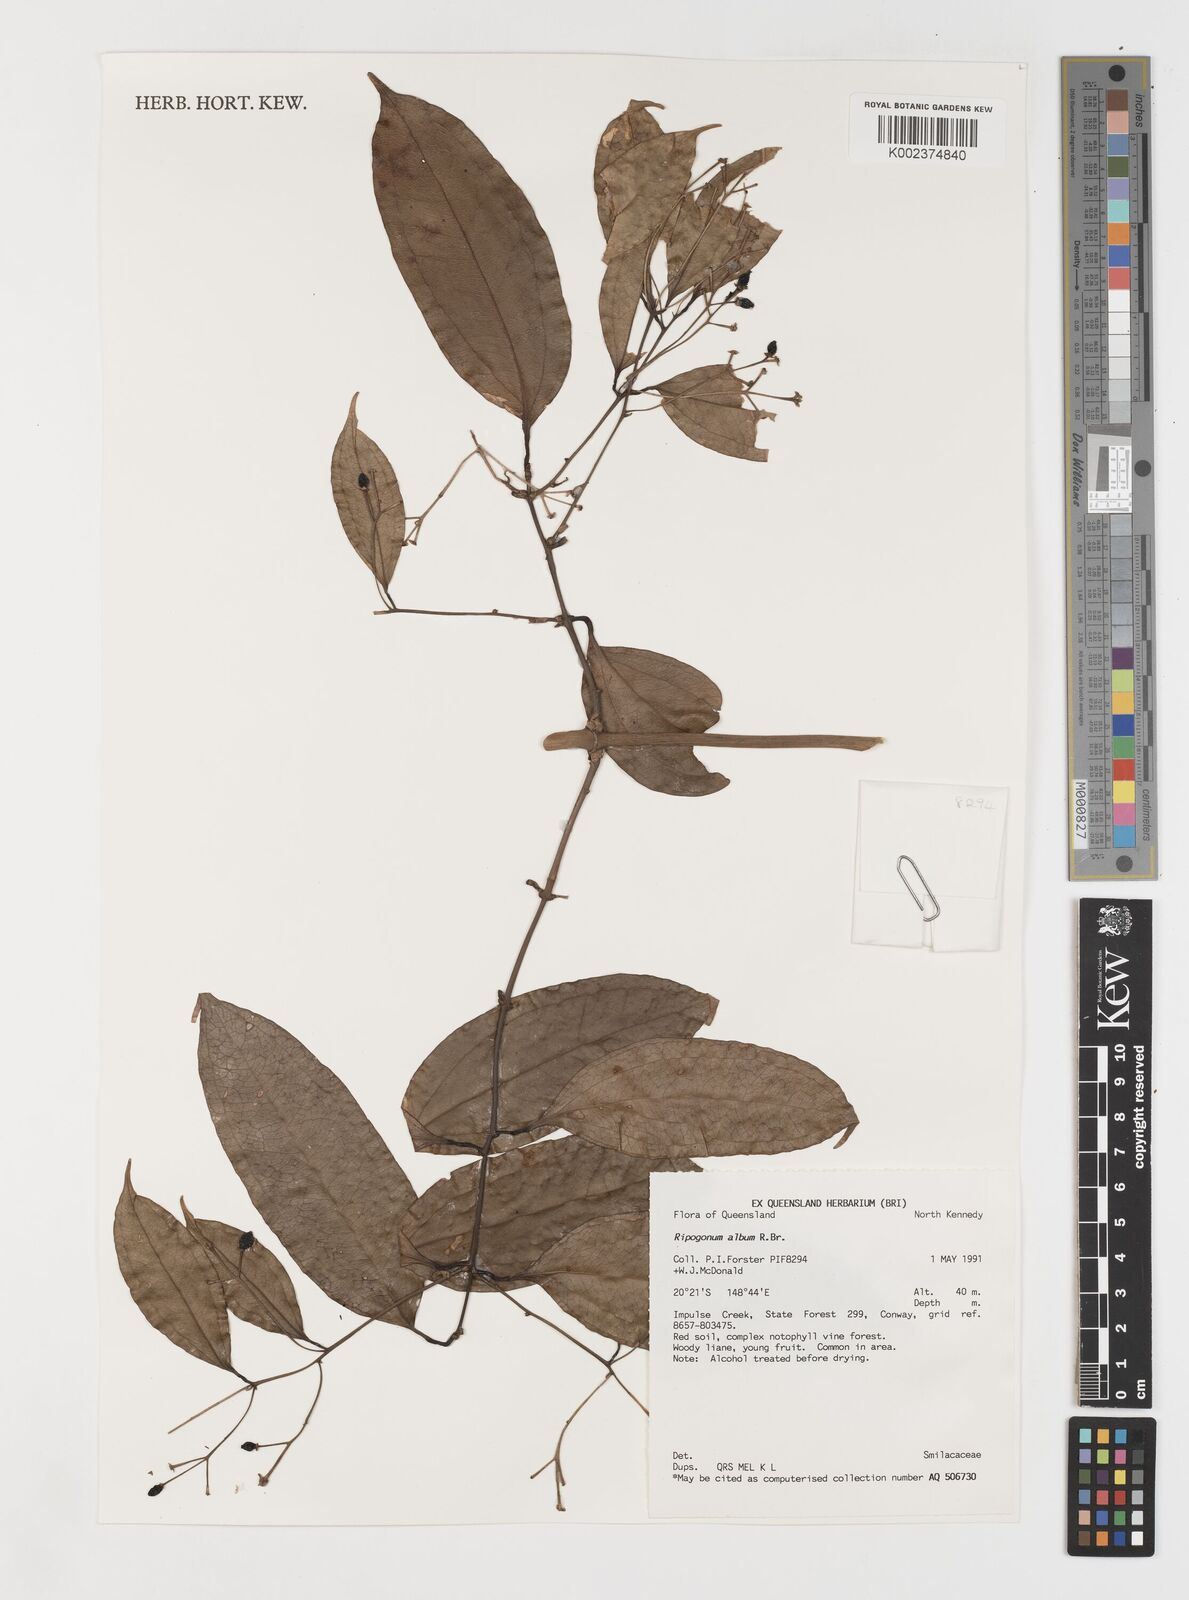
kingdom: Plantae
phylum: Tracheophyta
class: Liliopsida
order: Liliales
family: Ripogonaceae
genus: Ripogonum
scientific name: Ripogonum album
